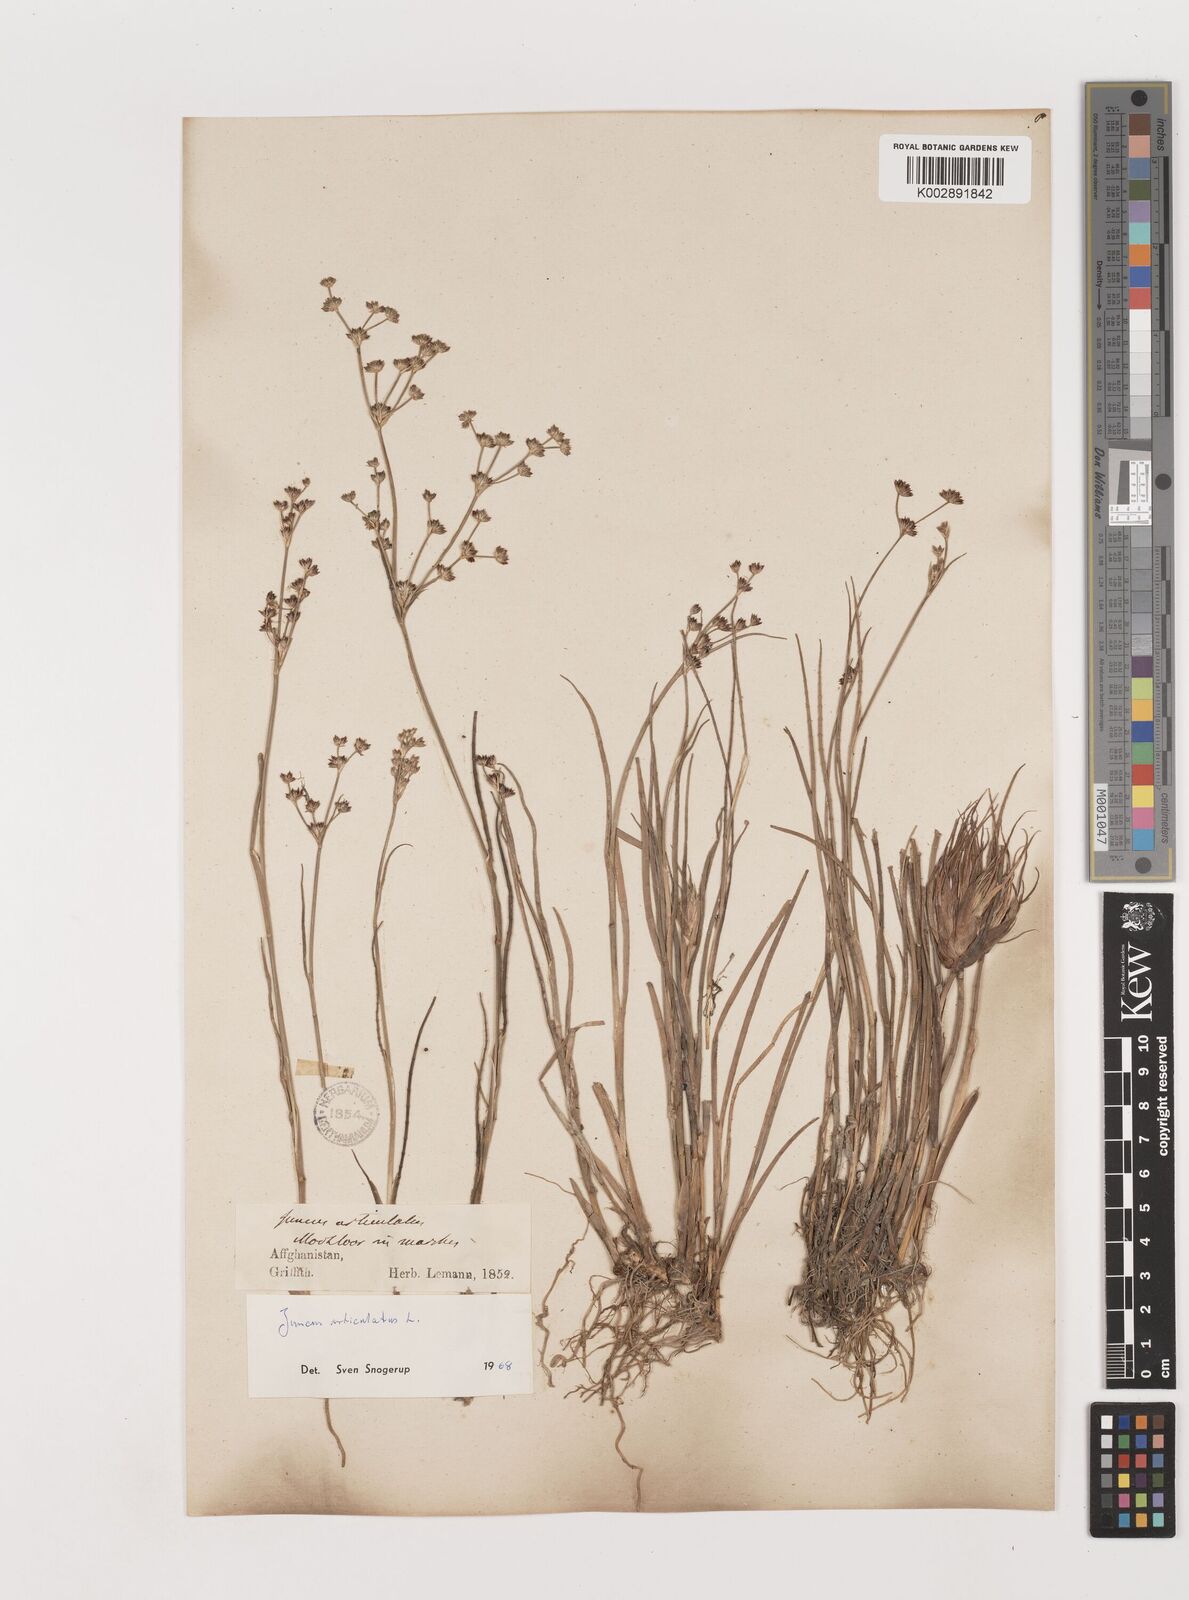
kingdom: Plantae
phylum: Tracheophyta
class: Liliopsida
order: Poales
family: Juncaceae
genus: Juncus
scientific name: Juncus articulatus
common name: Jointed rush
